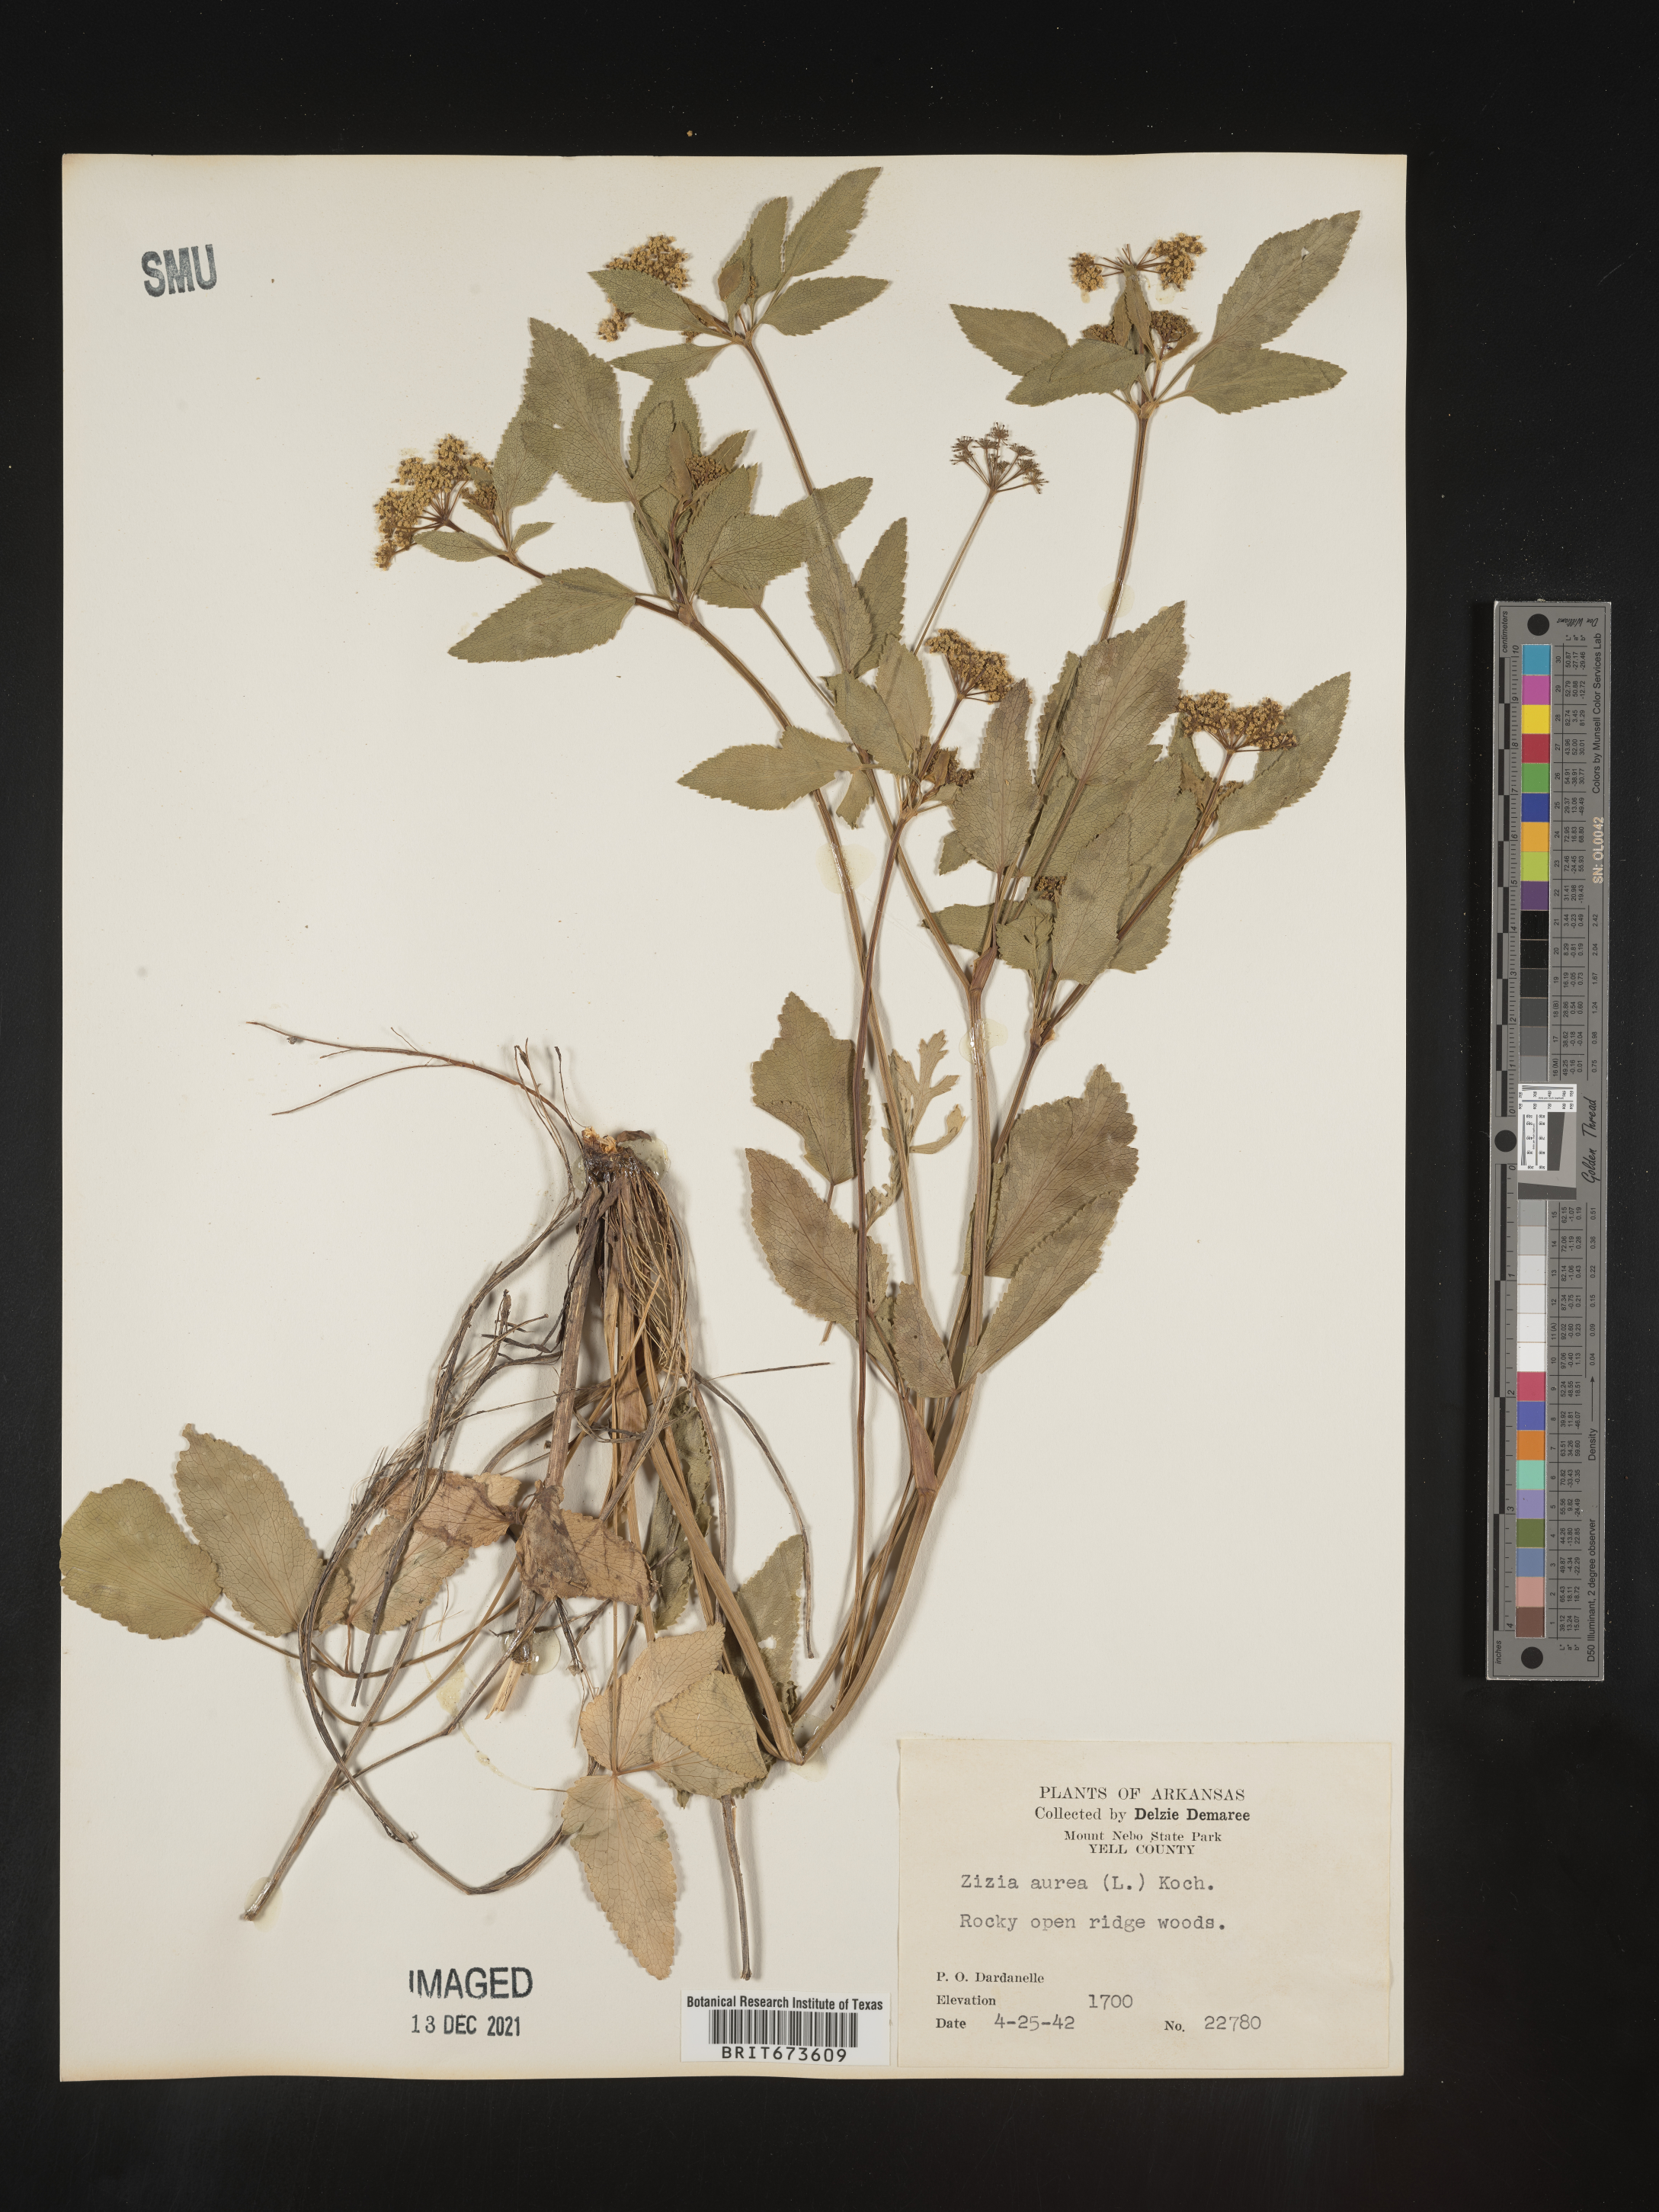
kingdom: Plantae
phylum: Tracheophyta
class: Magnoliopsida
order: Apiales
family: Apiaceae
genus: Zizia
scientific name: Zizia aurea
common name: Golden alexanders
